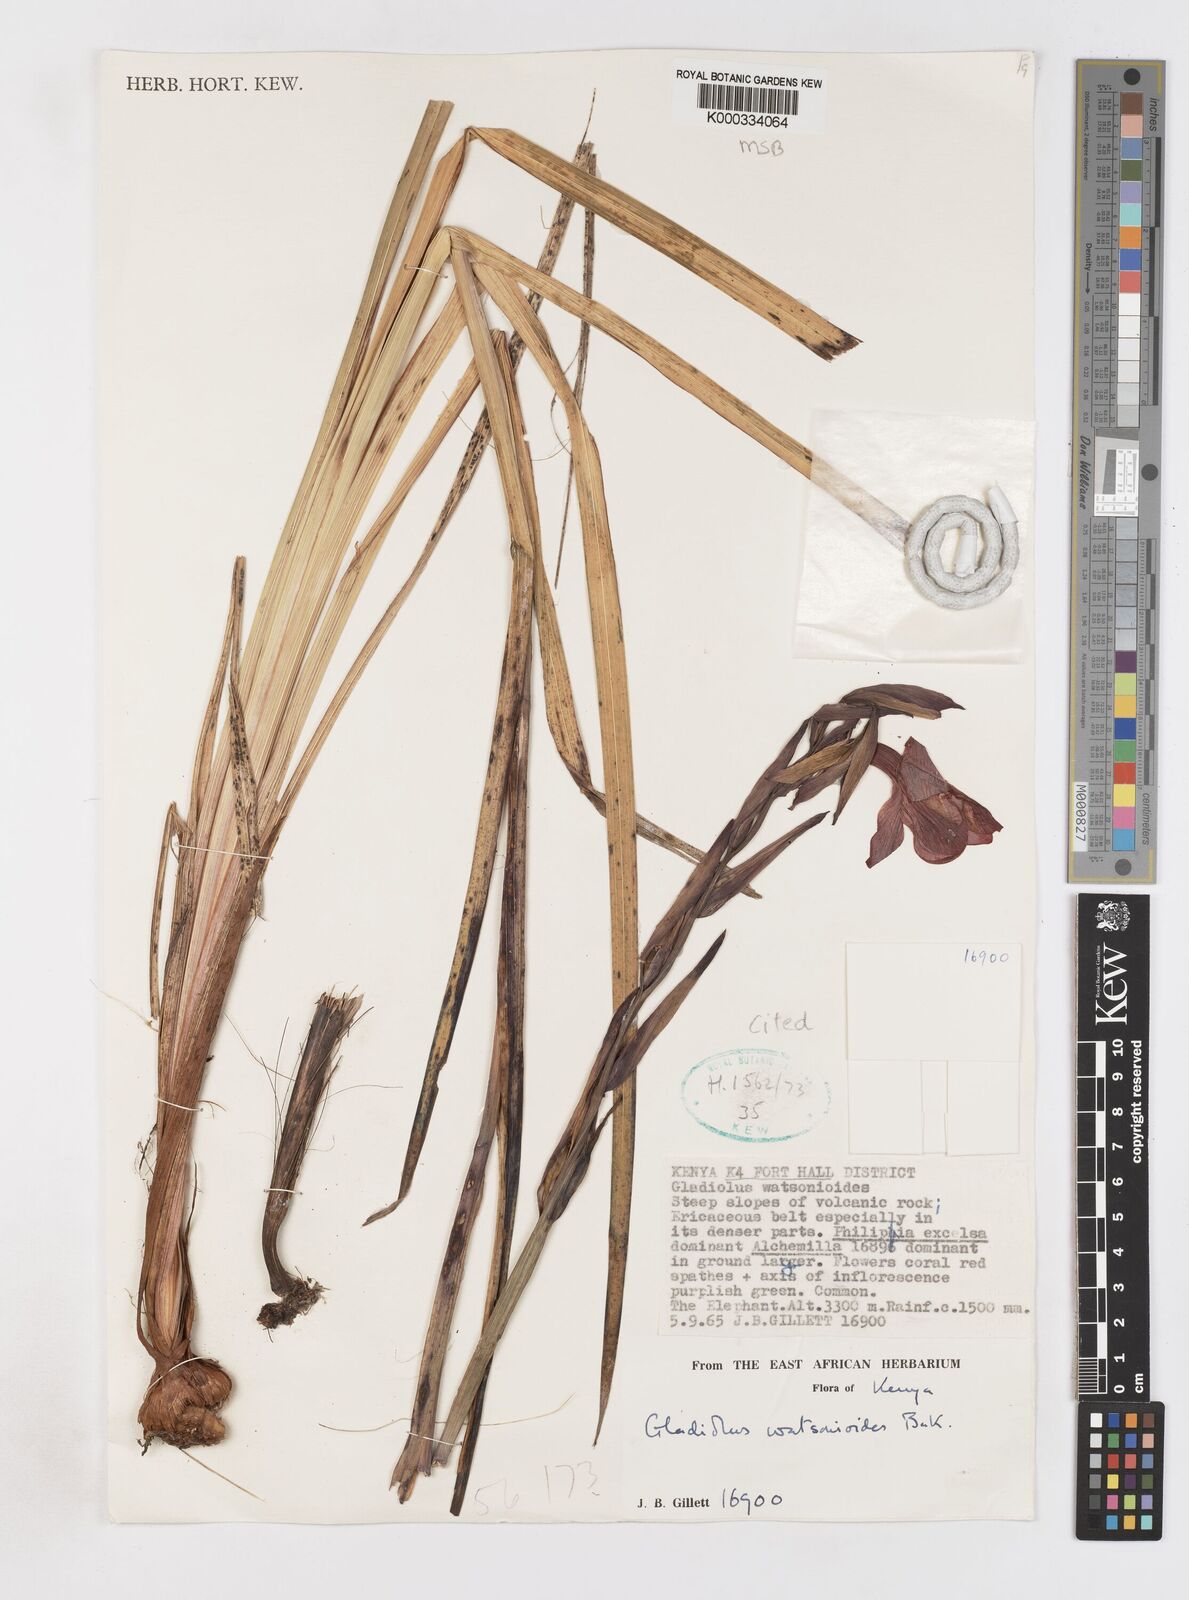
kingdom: Plantae
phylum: Tracheophyta
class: Liliopsida
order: Asparagales
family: Iridaceae
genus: Gladiolus
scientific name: Gladiolus watsonioides
